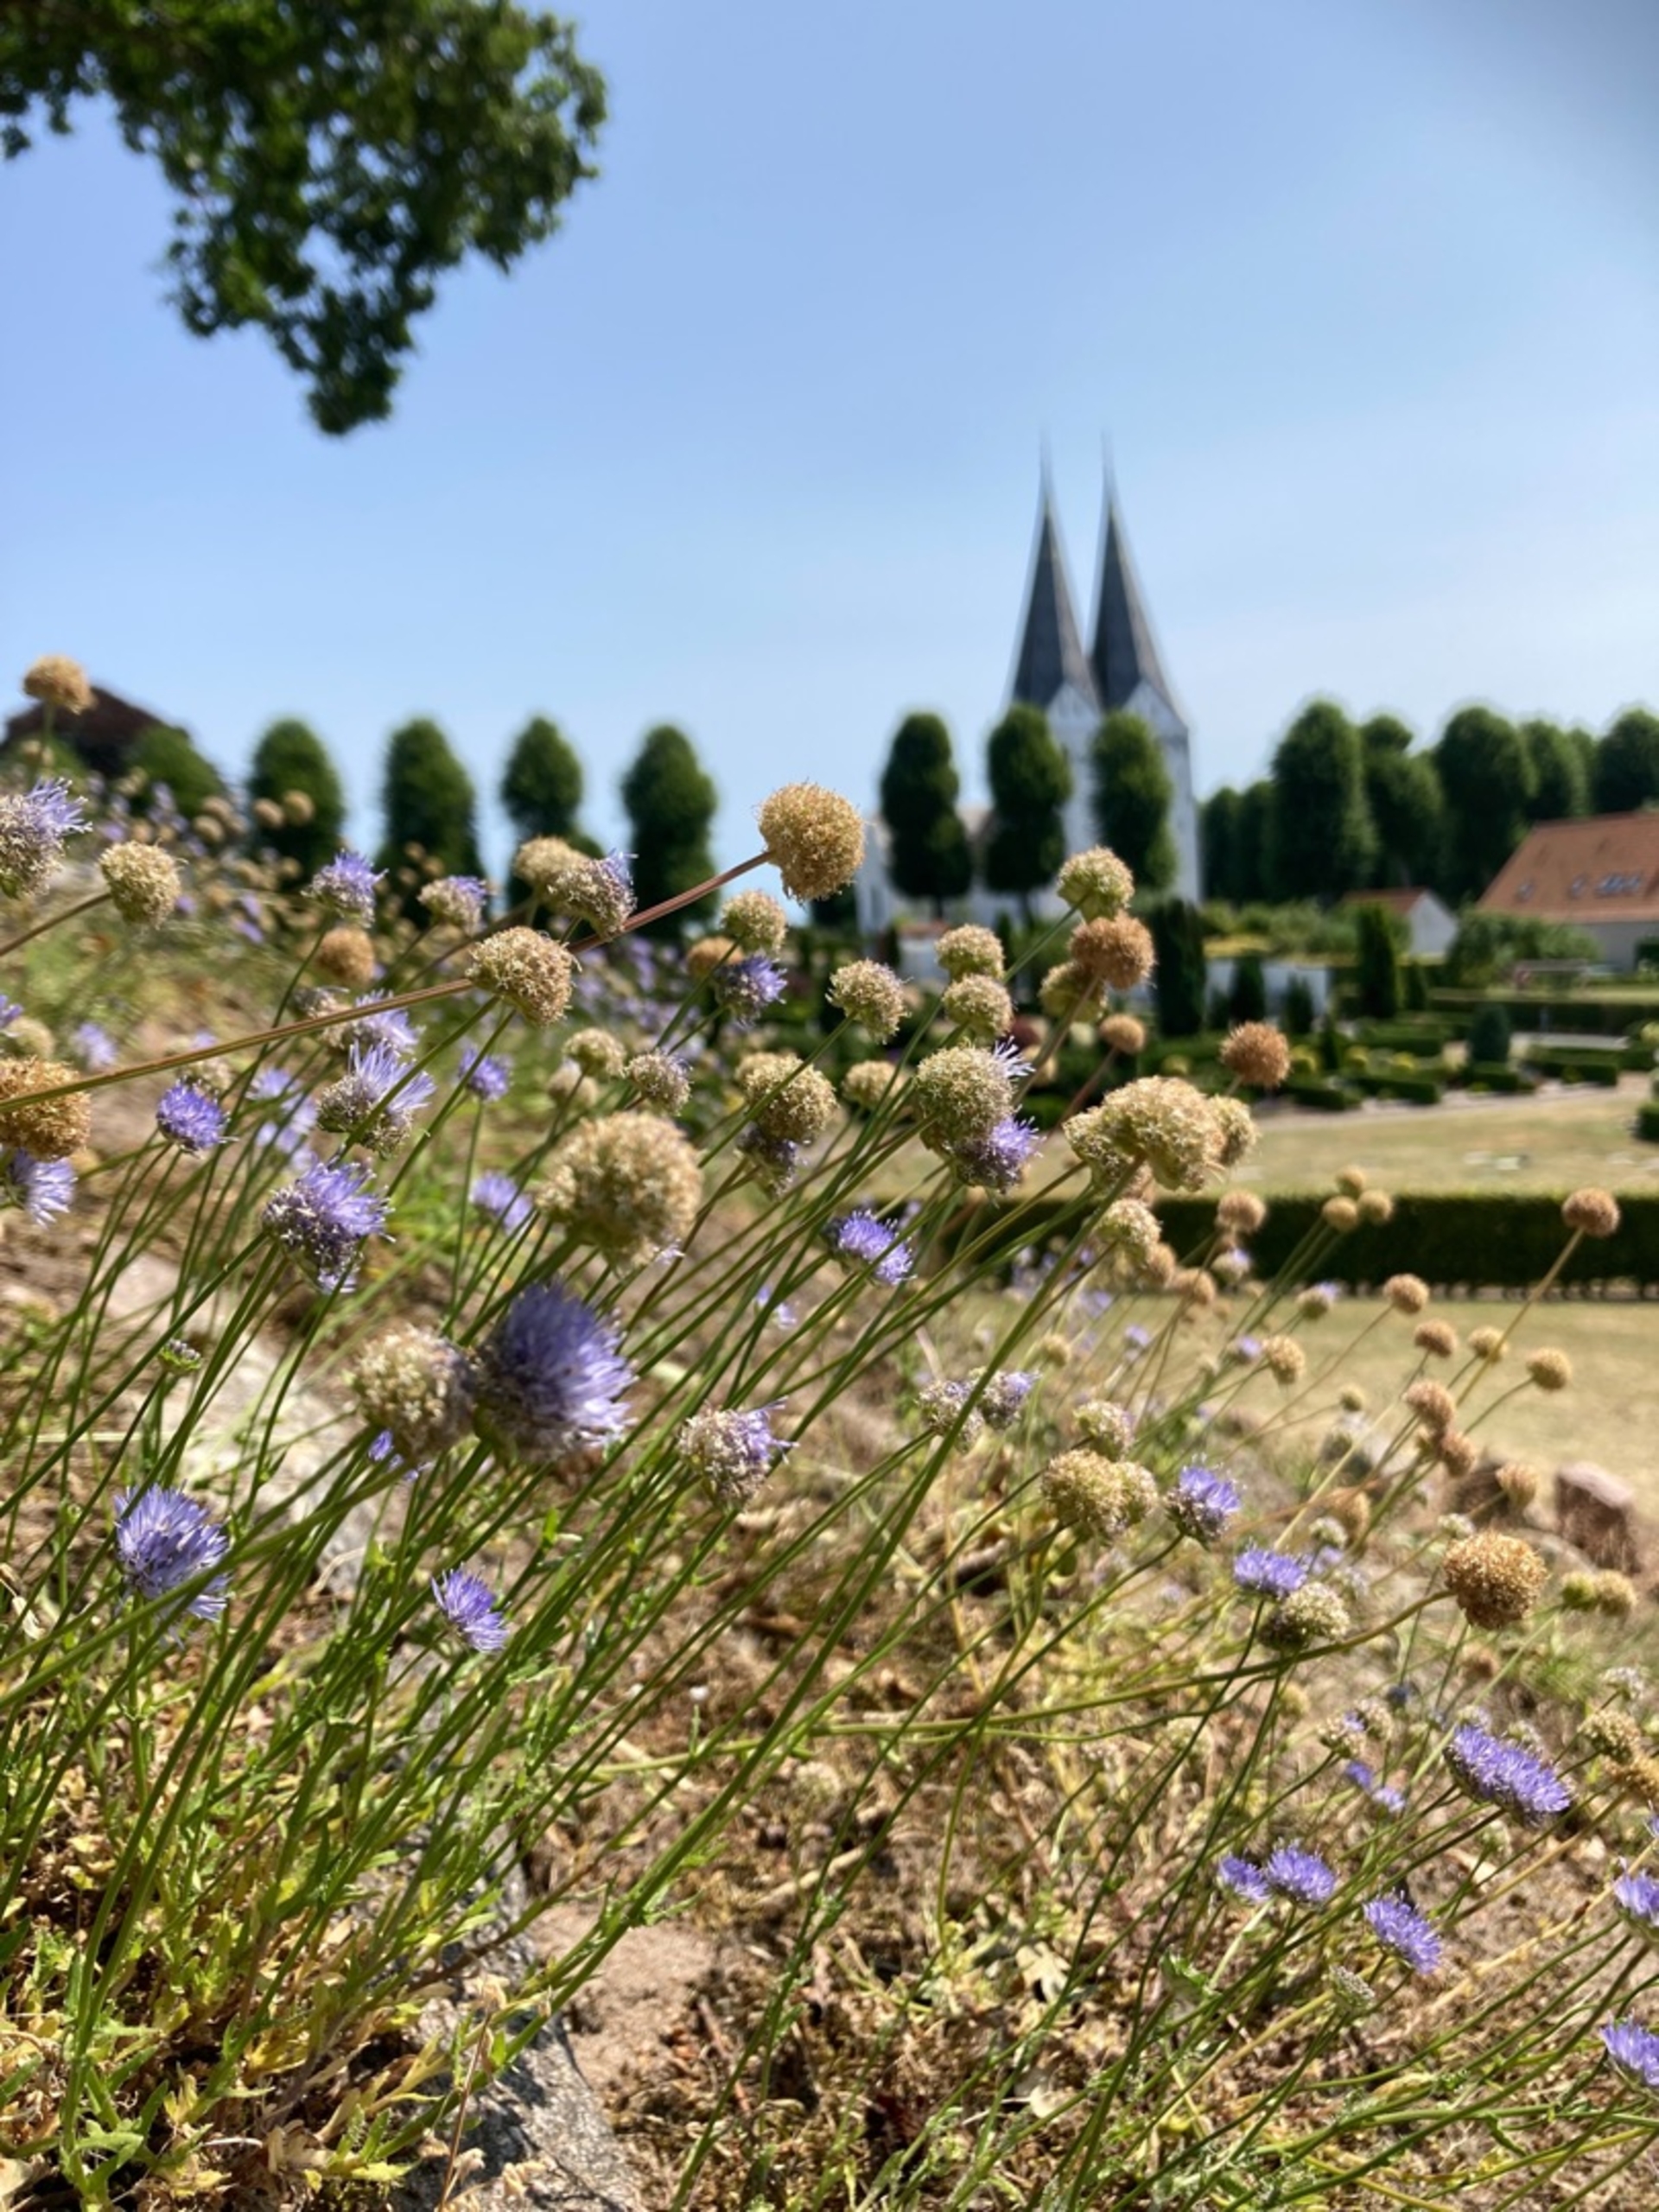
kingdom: Plantae
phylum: Tracheophyta
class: Magnoliopsida
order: Asterales
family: Campanulaceae
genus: Jasione
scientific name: Jasione montana
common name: Blåmunke
